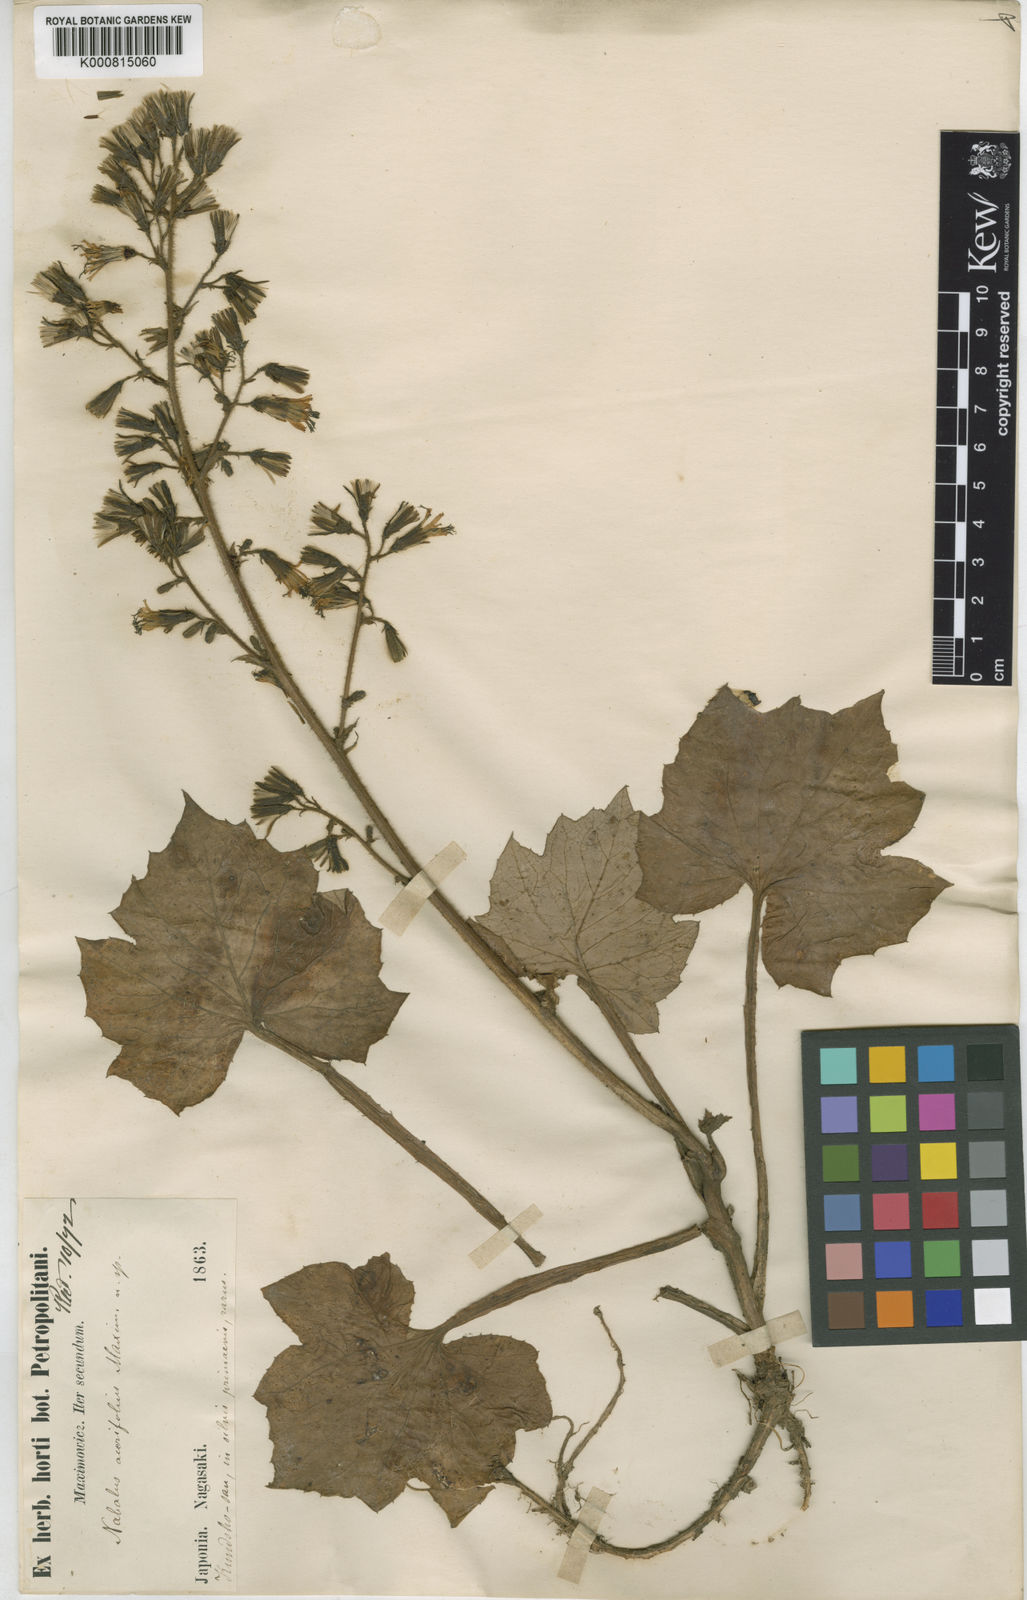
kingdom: Plantae
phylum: Tracheophyta
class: Magnoliopsida
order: Asterales
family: Asteraceae
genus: Nabalus
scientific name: Nabalus acerifolius
